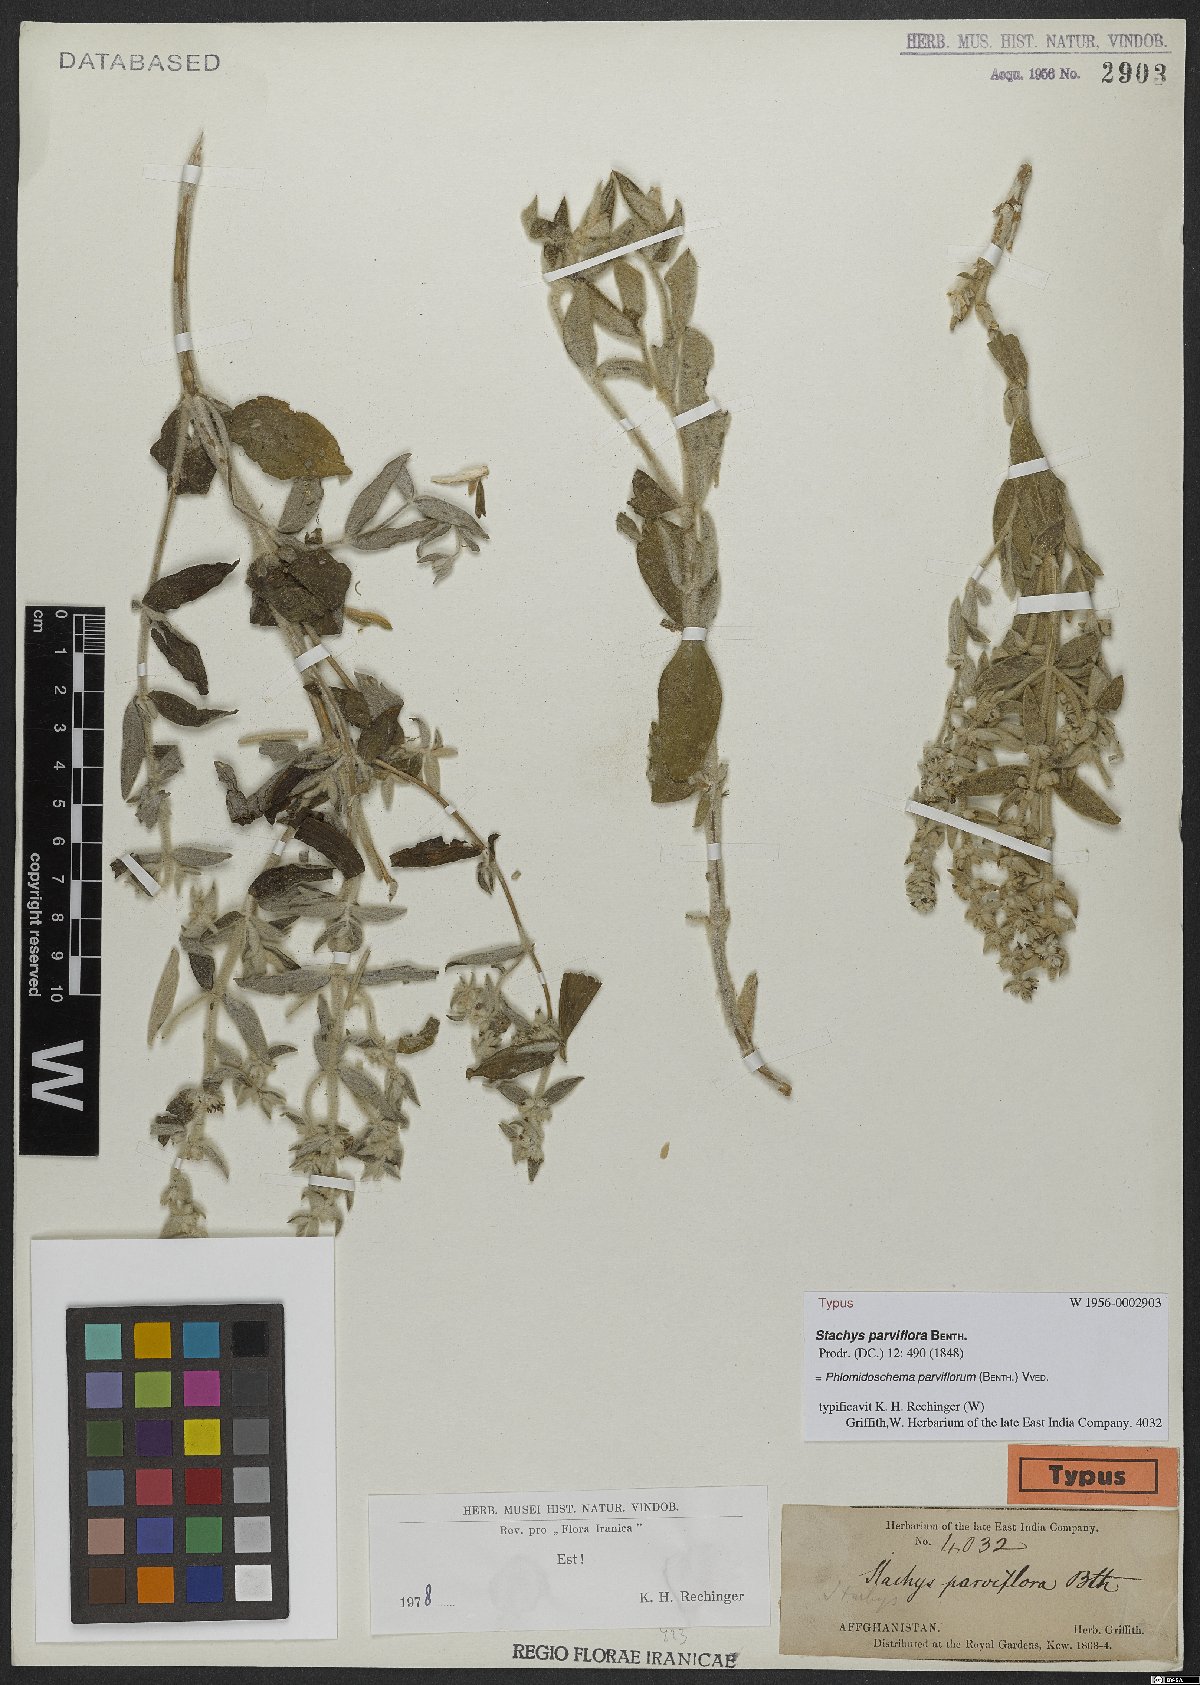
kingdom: Plantae
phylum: Tracheophyta
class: Magnoliopsida
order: Lamiales
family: Lamiaceae
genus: Phlomidoschema
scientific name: Phlomidoschema parviflorum
